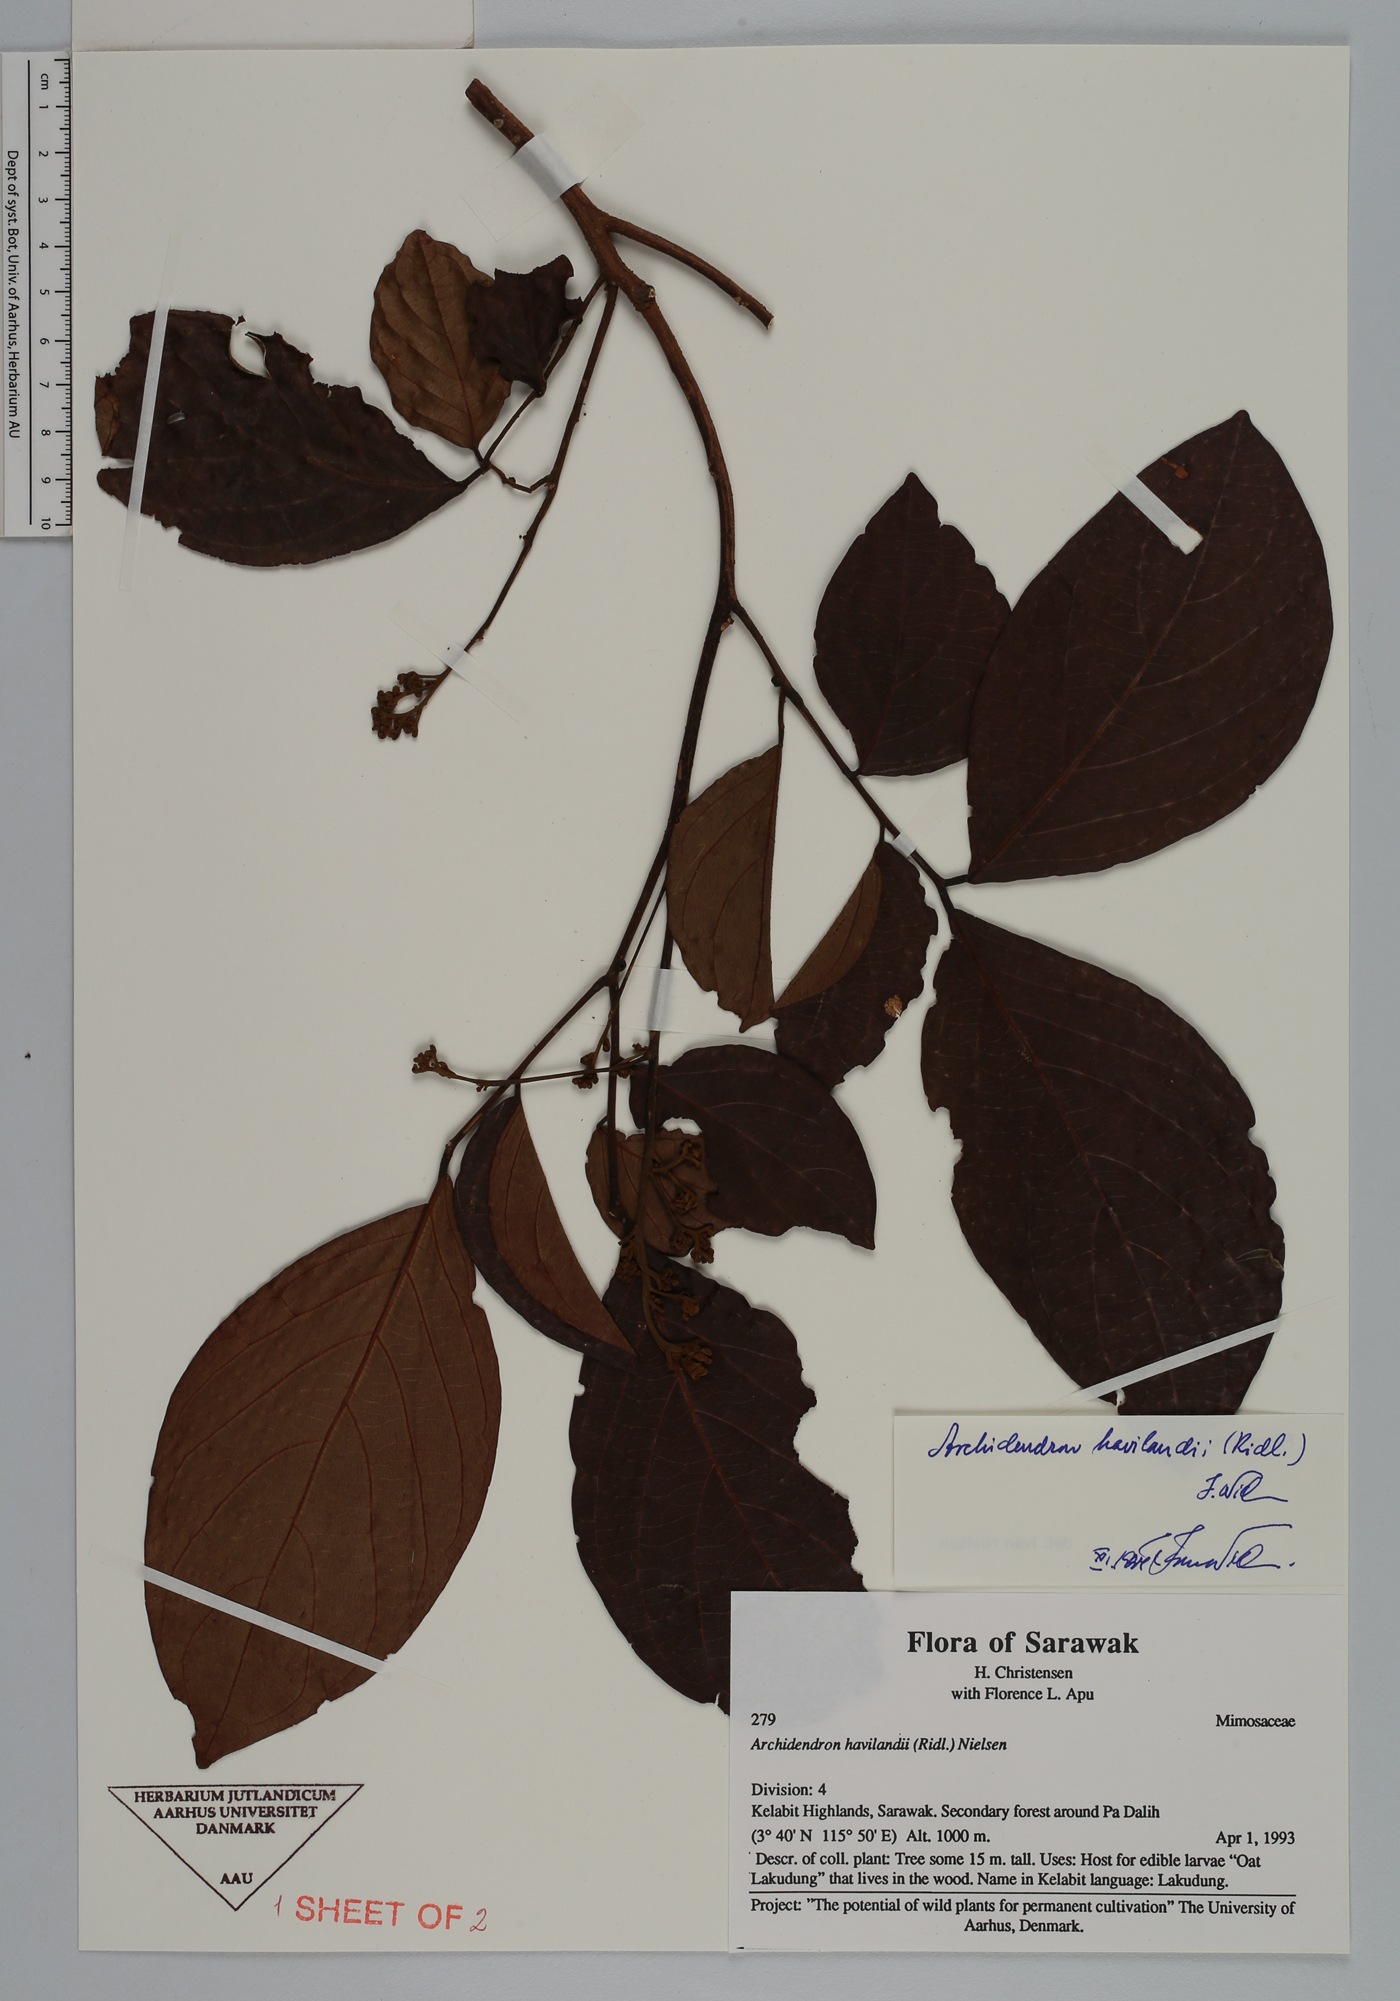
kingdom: Plantae
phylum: Tracheophyta
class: Magnoliopsida
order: Fabales
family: Fabaceae
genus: Archidendron
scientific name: Archidendron havilandii
